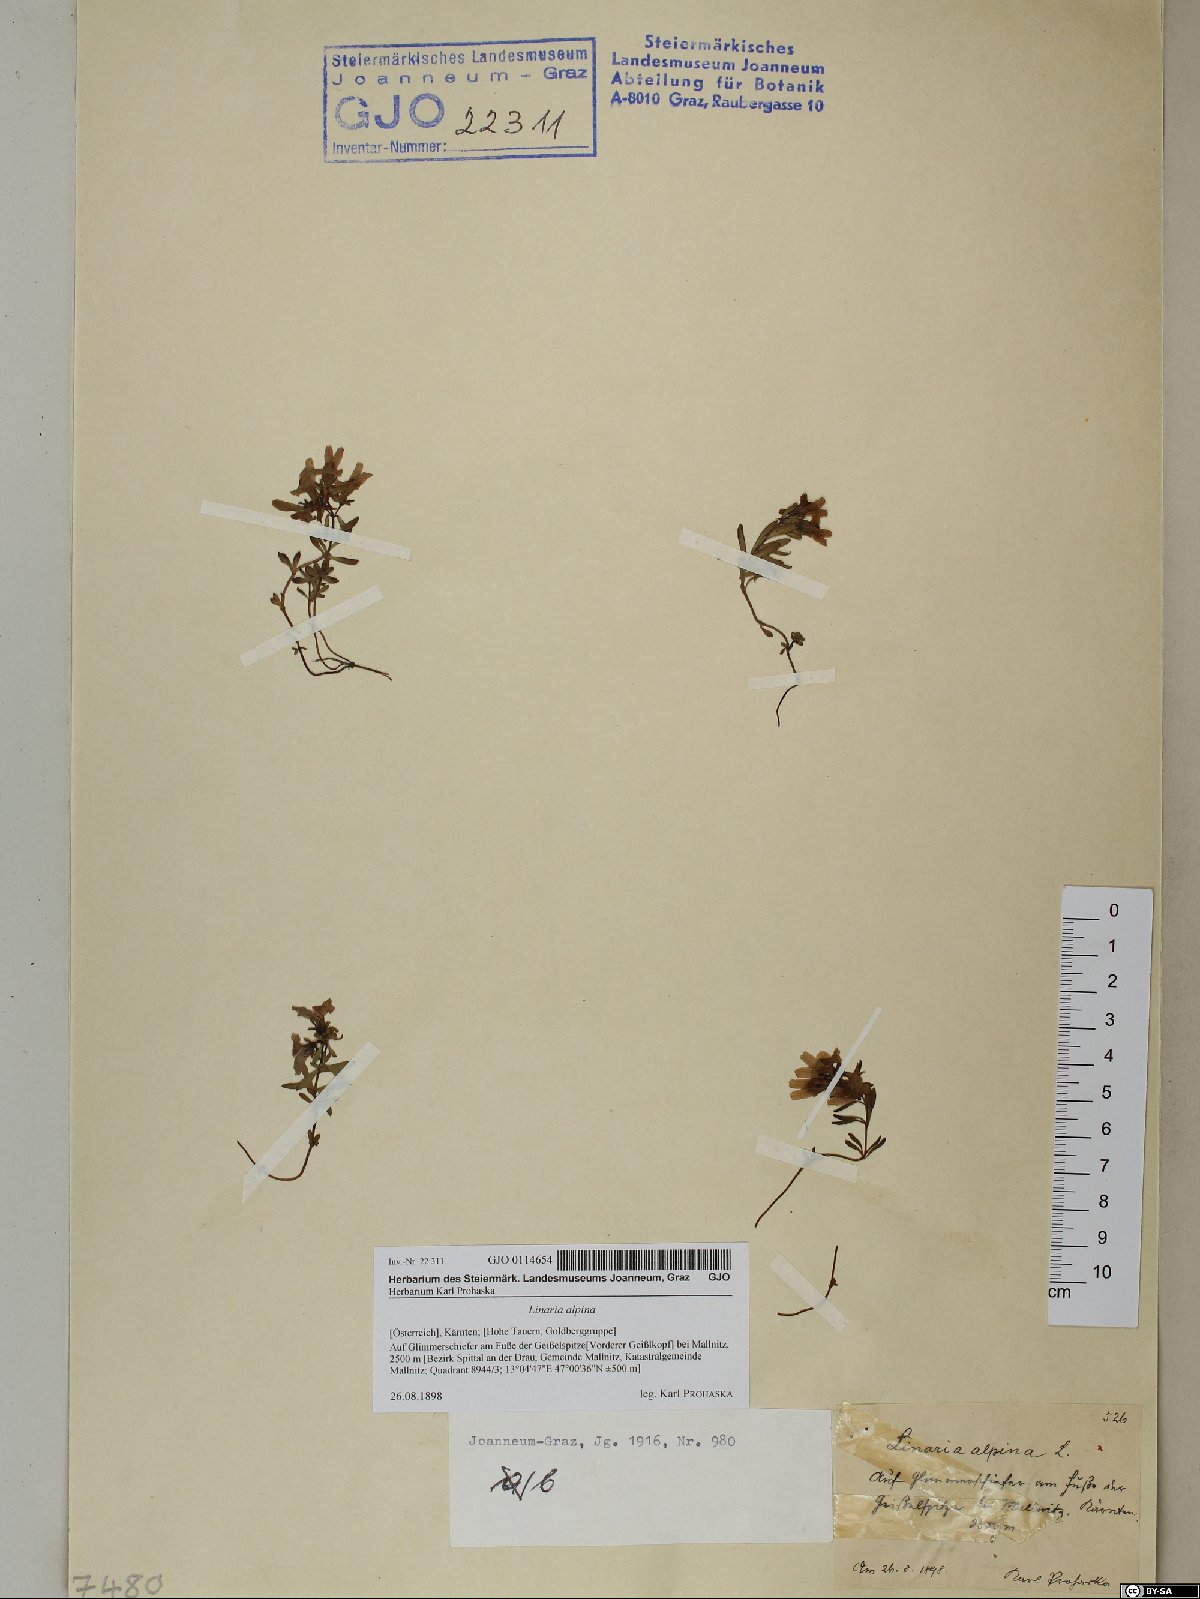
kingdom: Plantae
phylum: Tracheophyta
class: Magnoliopsida
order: Lamiales
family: Plantaginaceae
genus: Linaria
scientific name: Linaria alpina
